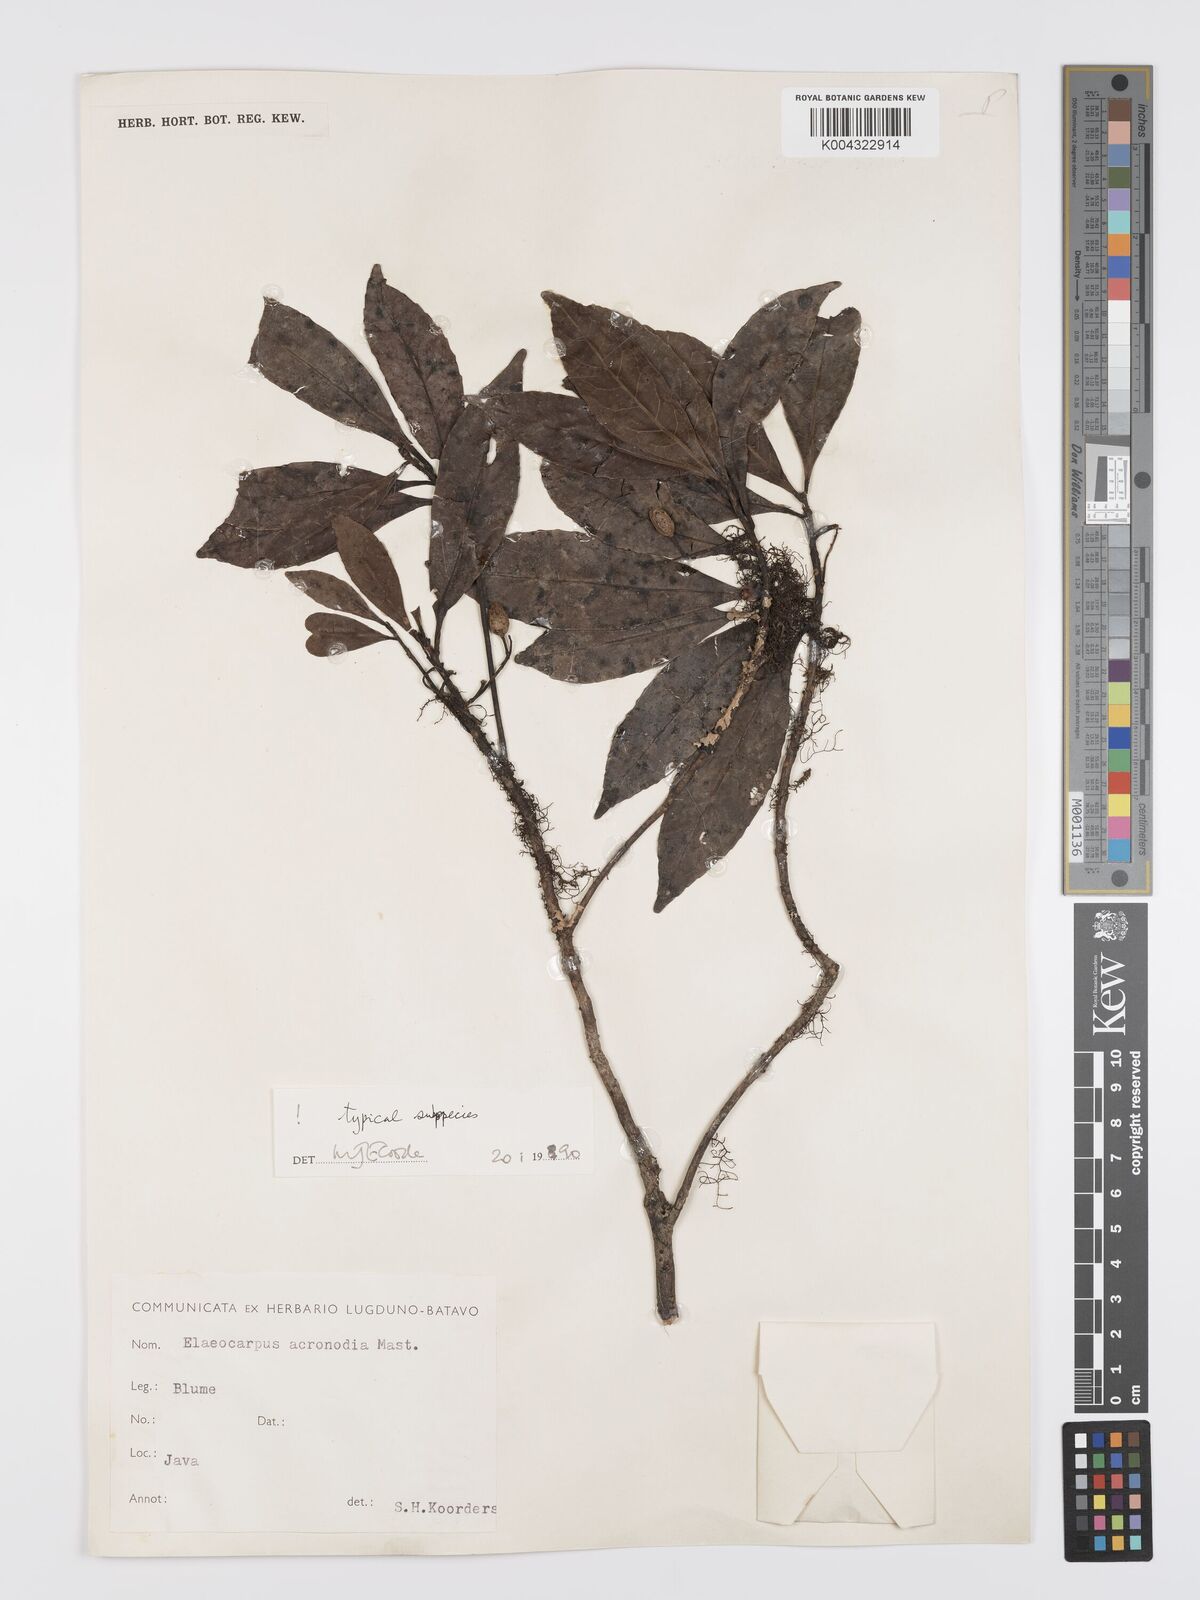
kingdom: Plantae
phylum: Tracheophyta
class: Magnoliopsida
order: Oxalidales
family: Elaeocarpaceae
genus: Elaeocarpus
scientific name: Elaeocarpus acronodia
